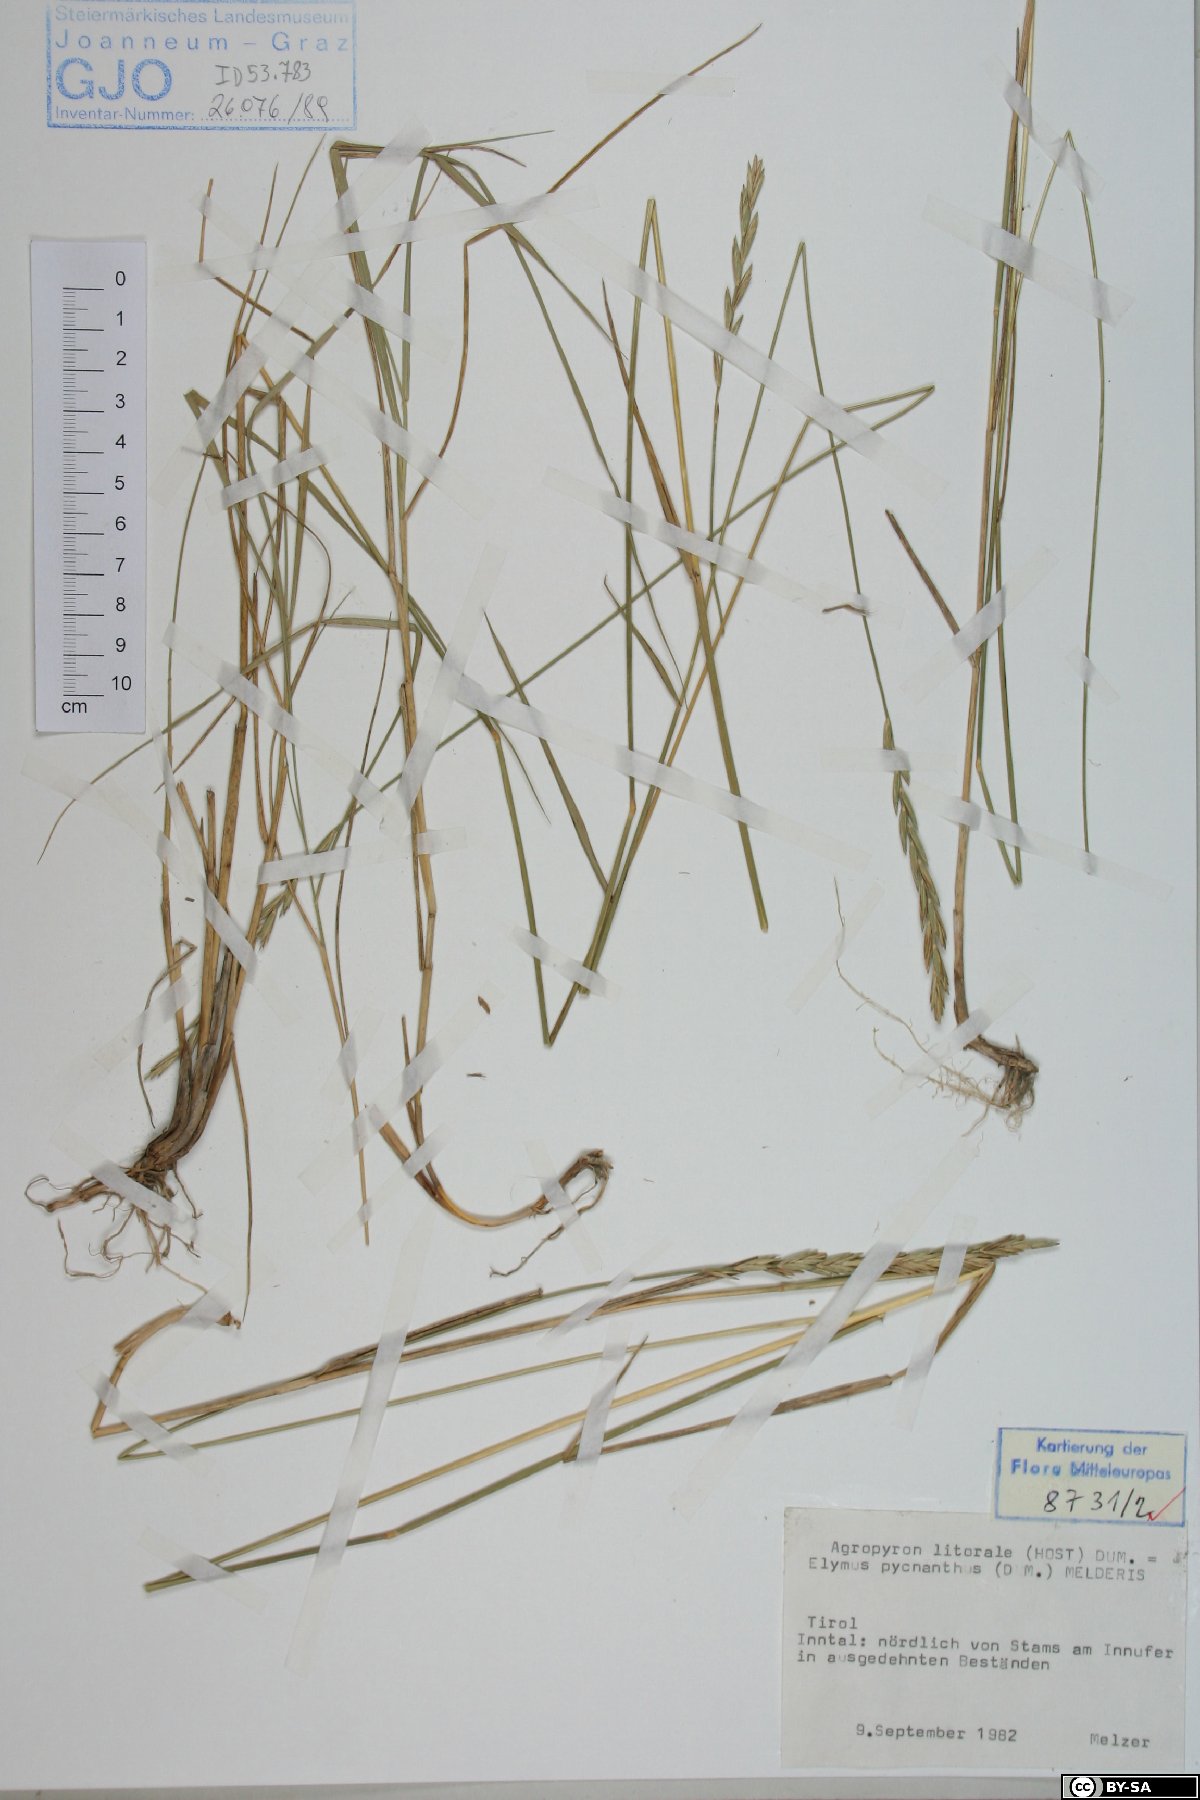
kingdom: Plantae
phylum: Tracheophyta
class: Liliopsida
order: Poales
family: Poaceae
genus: Elymus
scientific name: Elymus athericus
